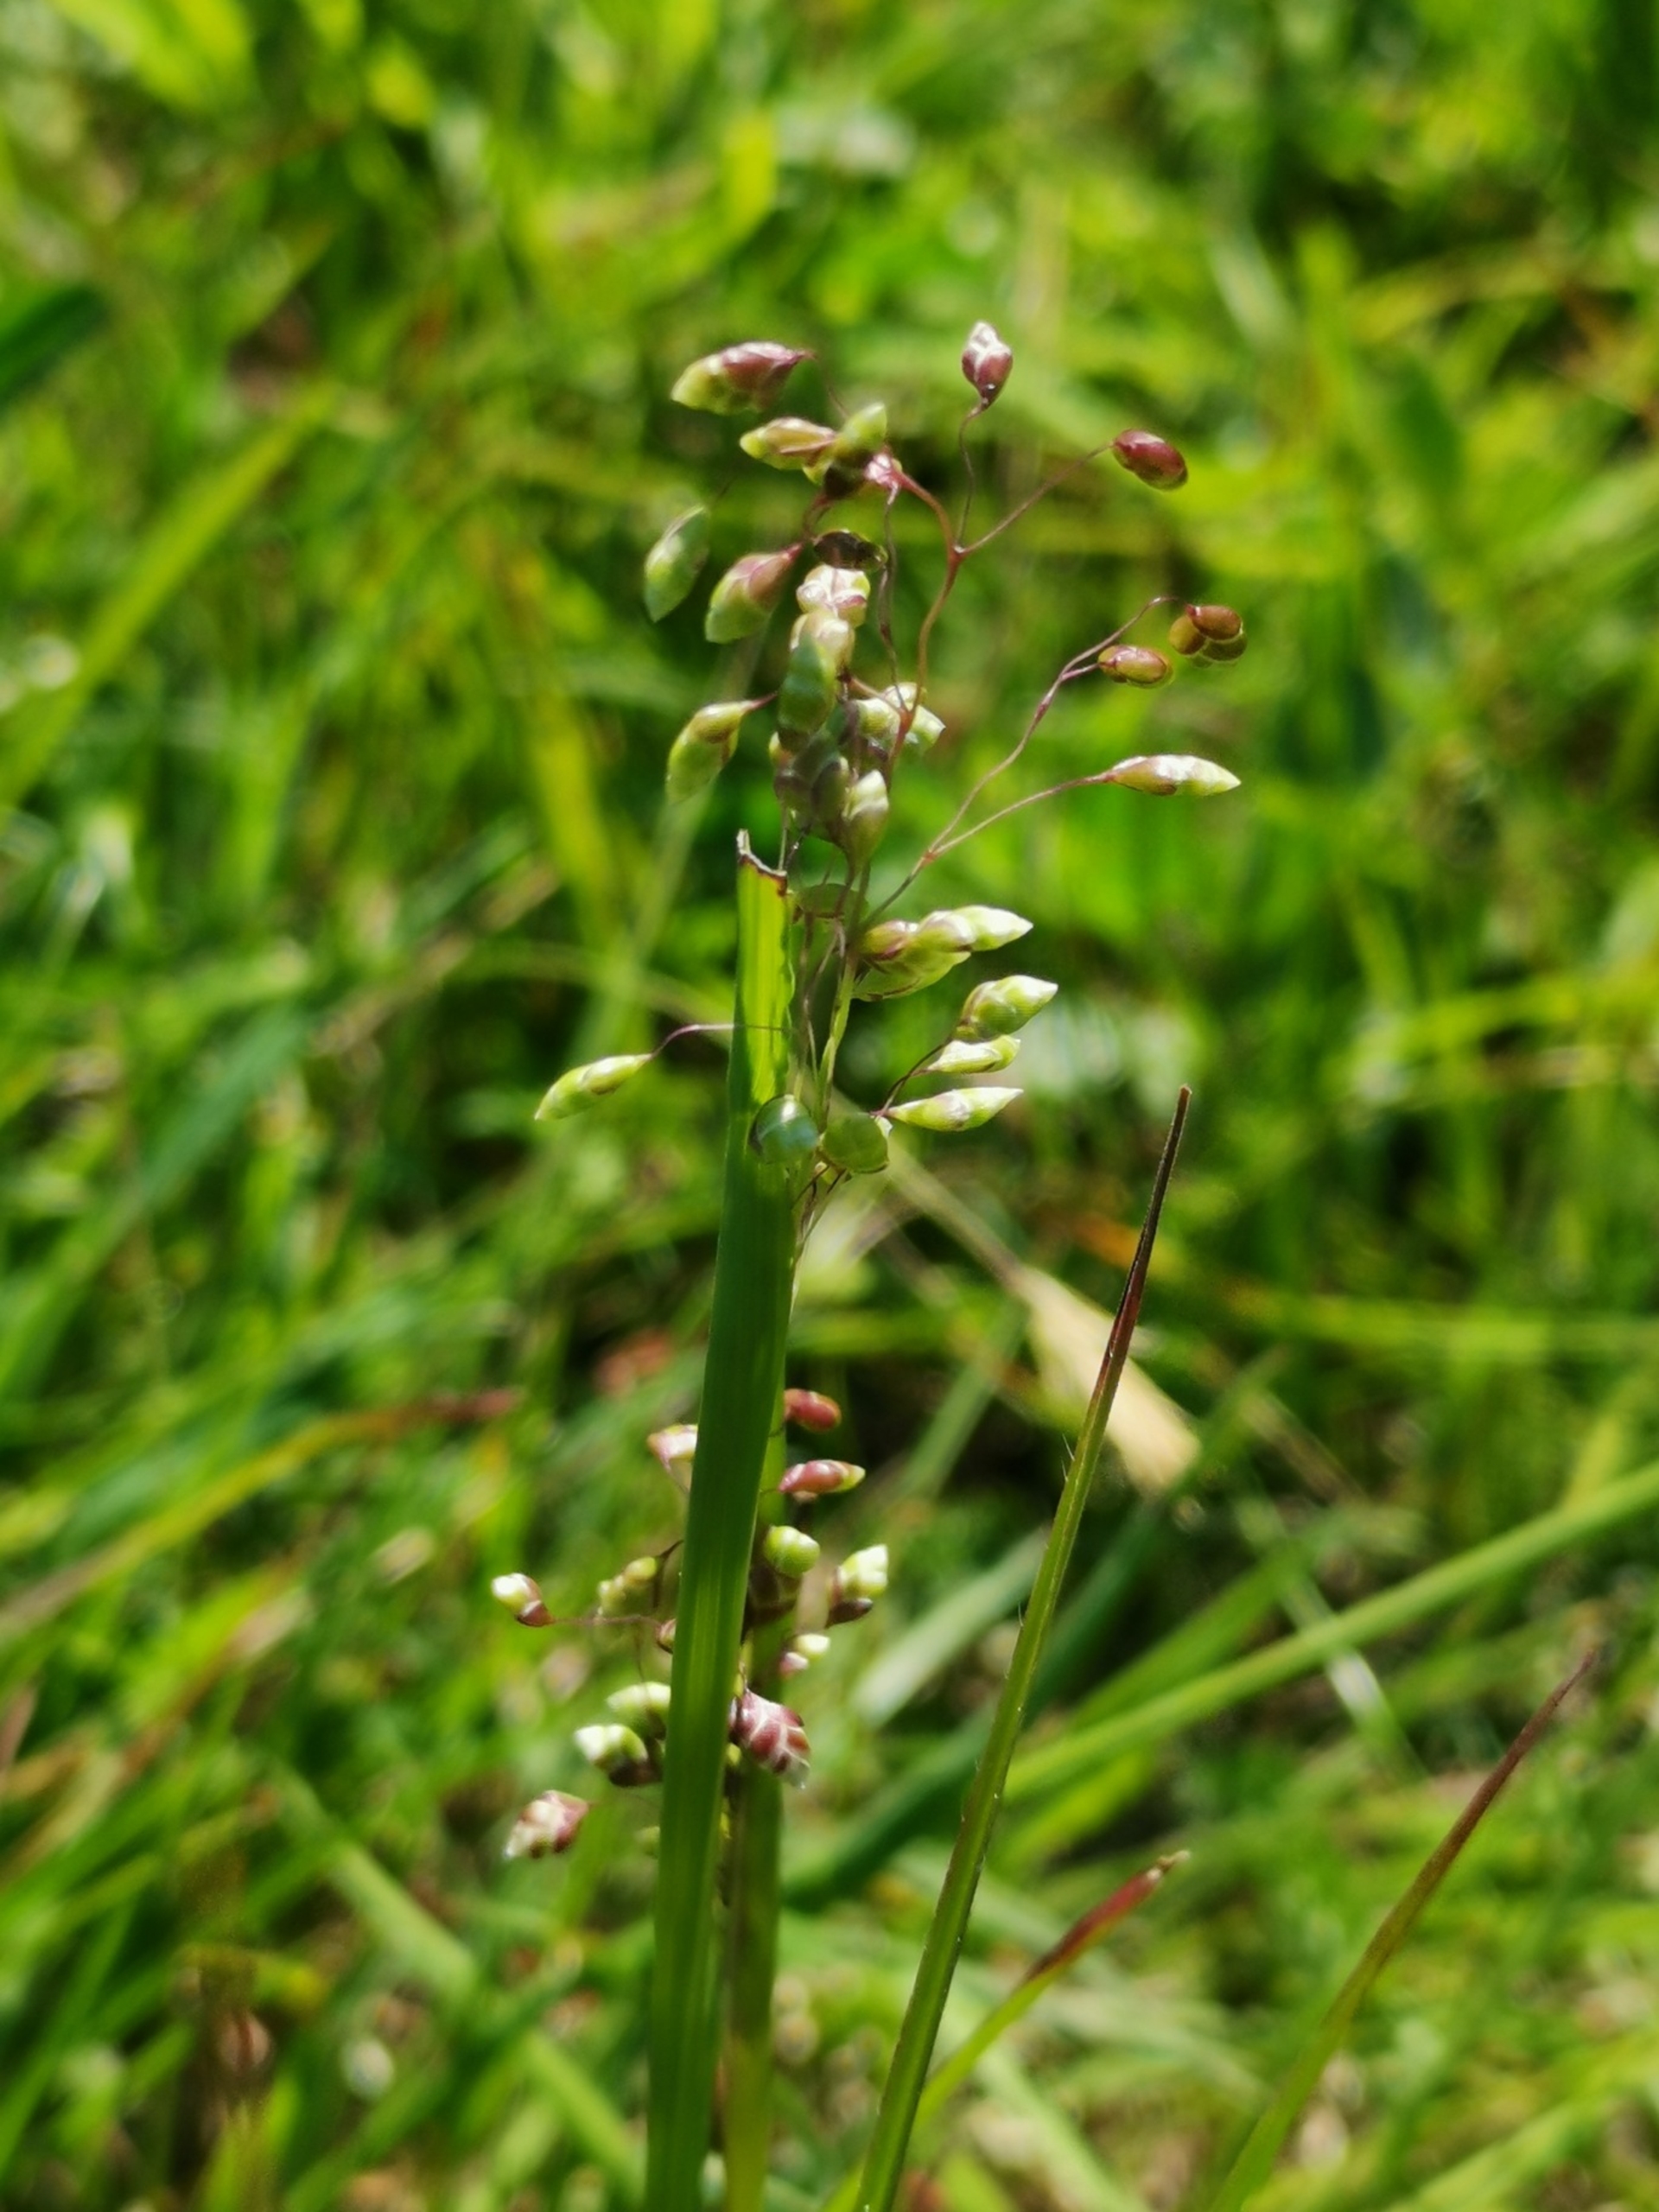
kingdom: Plantae
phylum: Tracheophyta
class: Liliopsida
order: Poales
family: Poaceae
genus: Briza
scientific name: Briza media
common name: Hjertegræs
